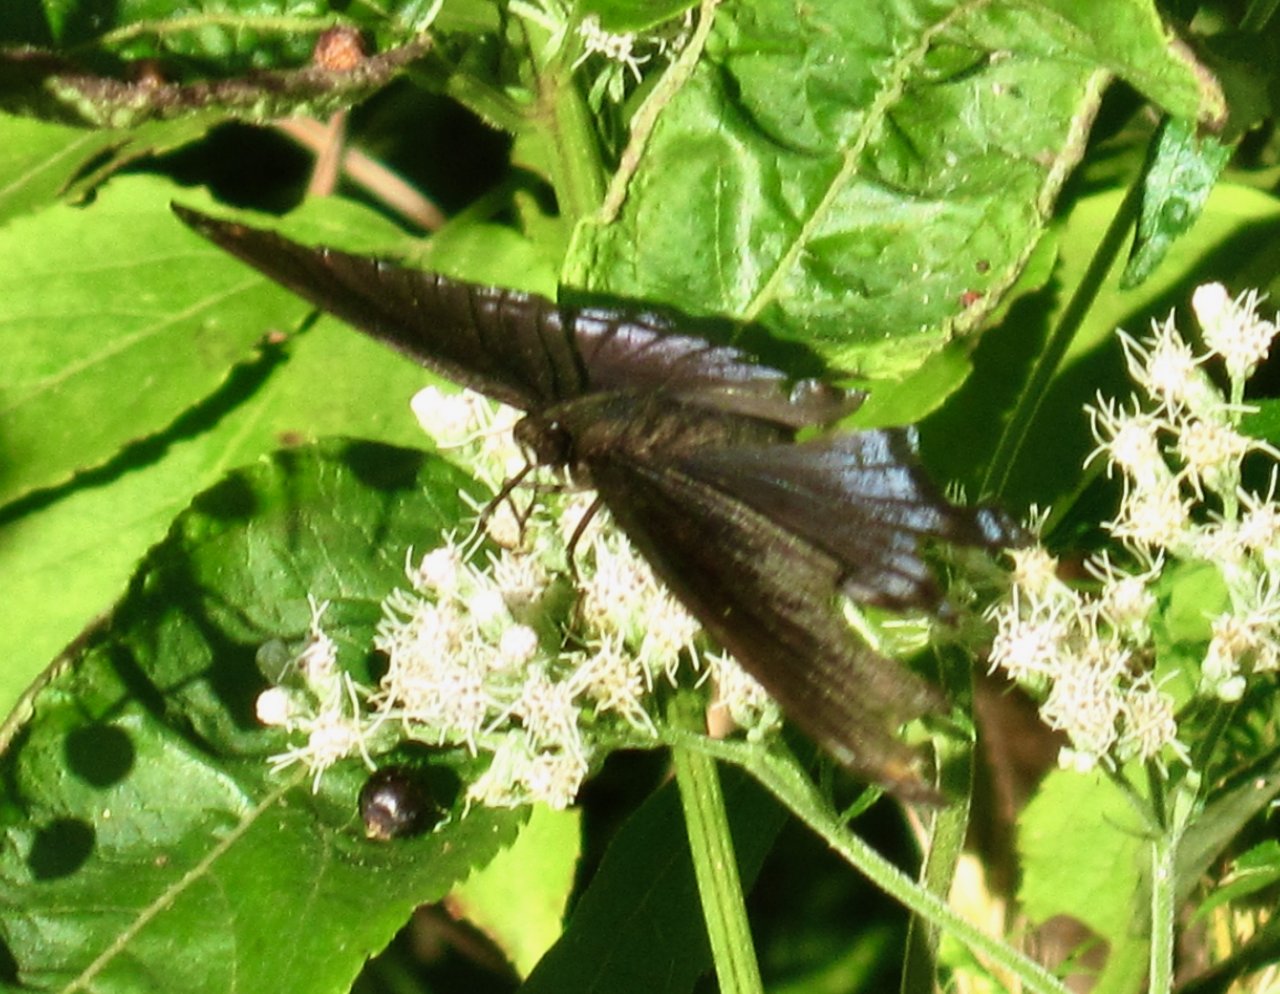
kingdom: Animalia
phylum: Arthropoda
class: Insecta
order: Lepidoptera
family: Nymphalidae
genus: Limenitis
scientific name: Limenitis astyanax
